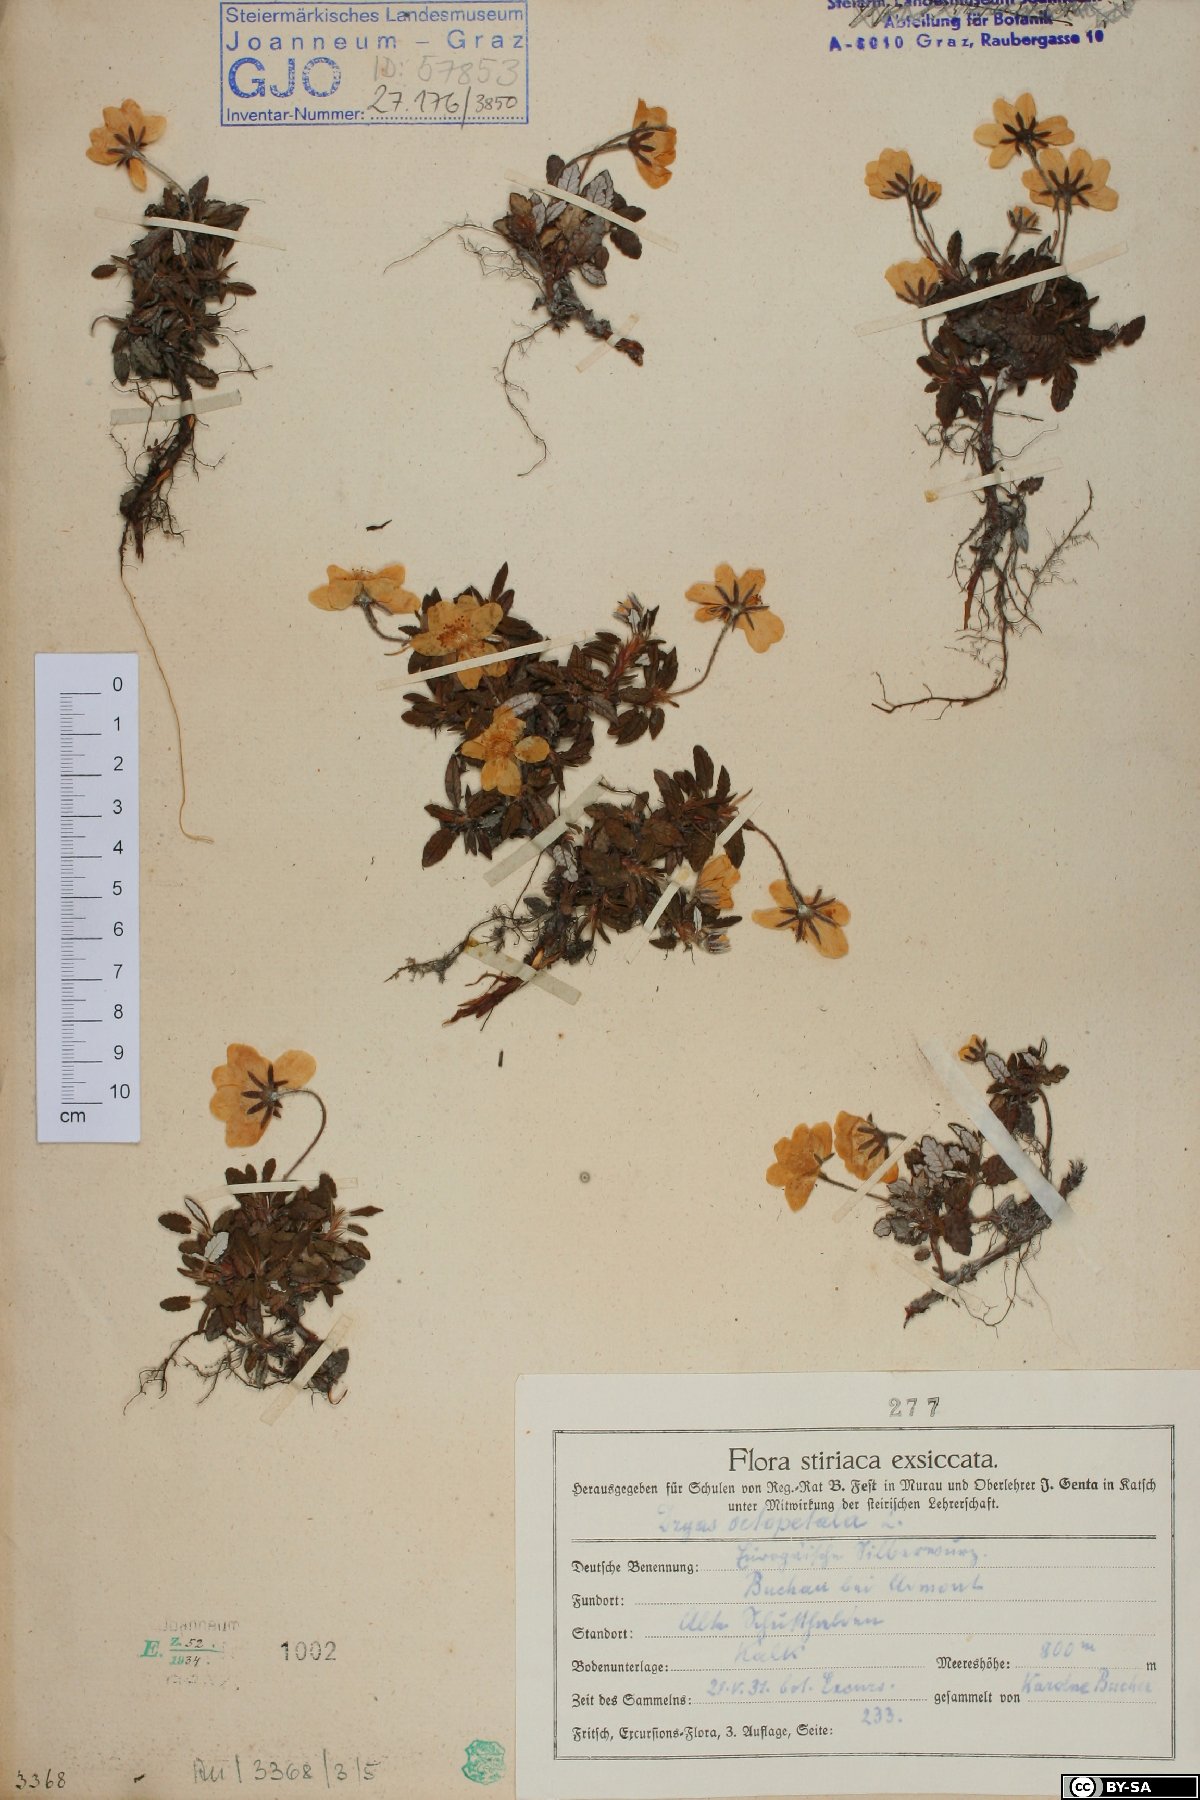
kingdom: Plantae
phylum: Tracheophyta
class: Magnoliopsida
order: Rosales
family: Rosaceae
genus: Dryas
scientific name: Dryas octopetala
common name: Eight-petal mountain-avens
